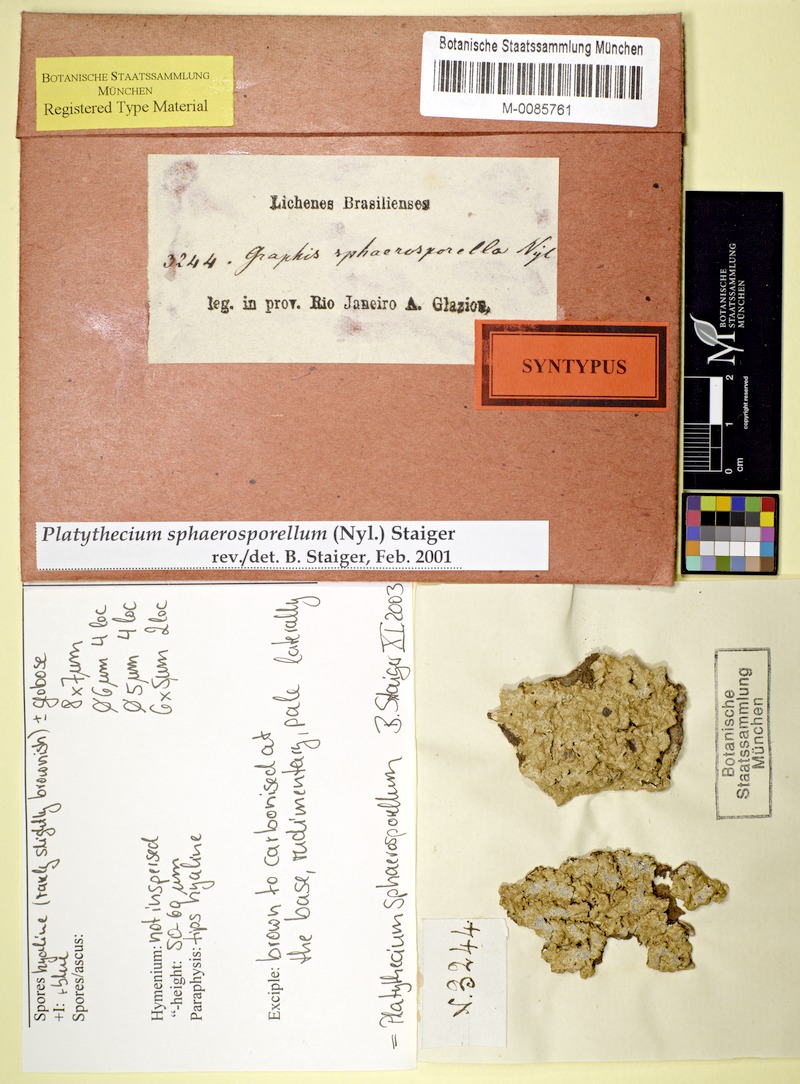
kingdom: Fungi
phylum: Ascomycota
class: Lecanoromycetes
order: Ostropales
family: Graphidaceae
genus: Platythecium
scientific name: Platythecium sphaerosporellum
